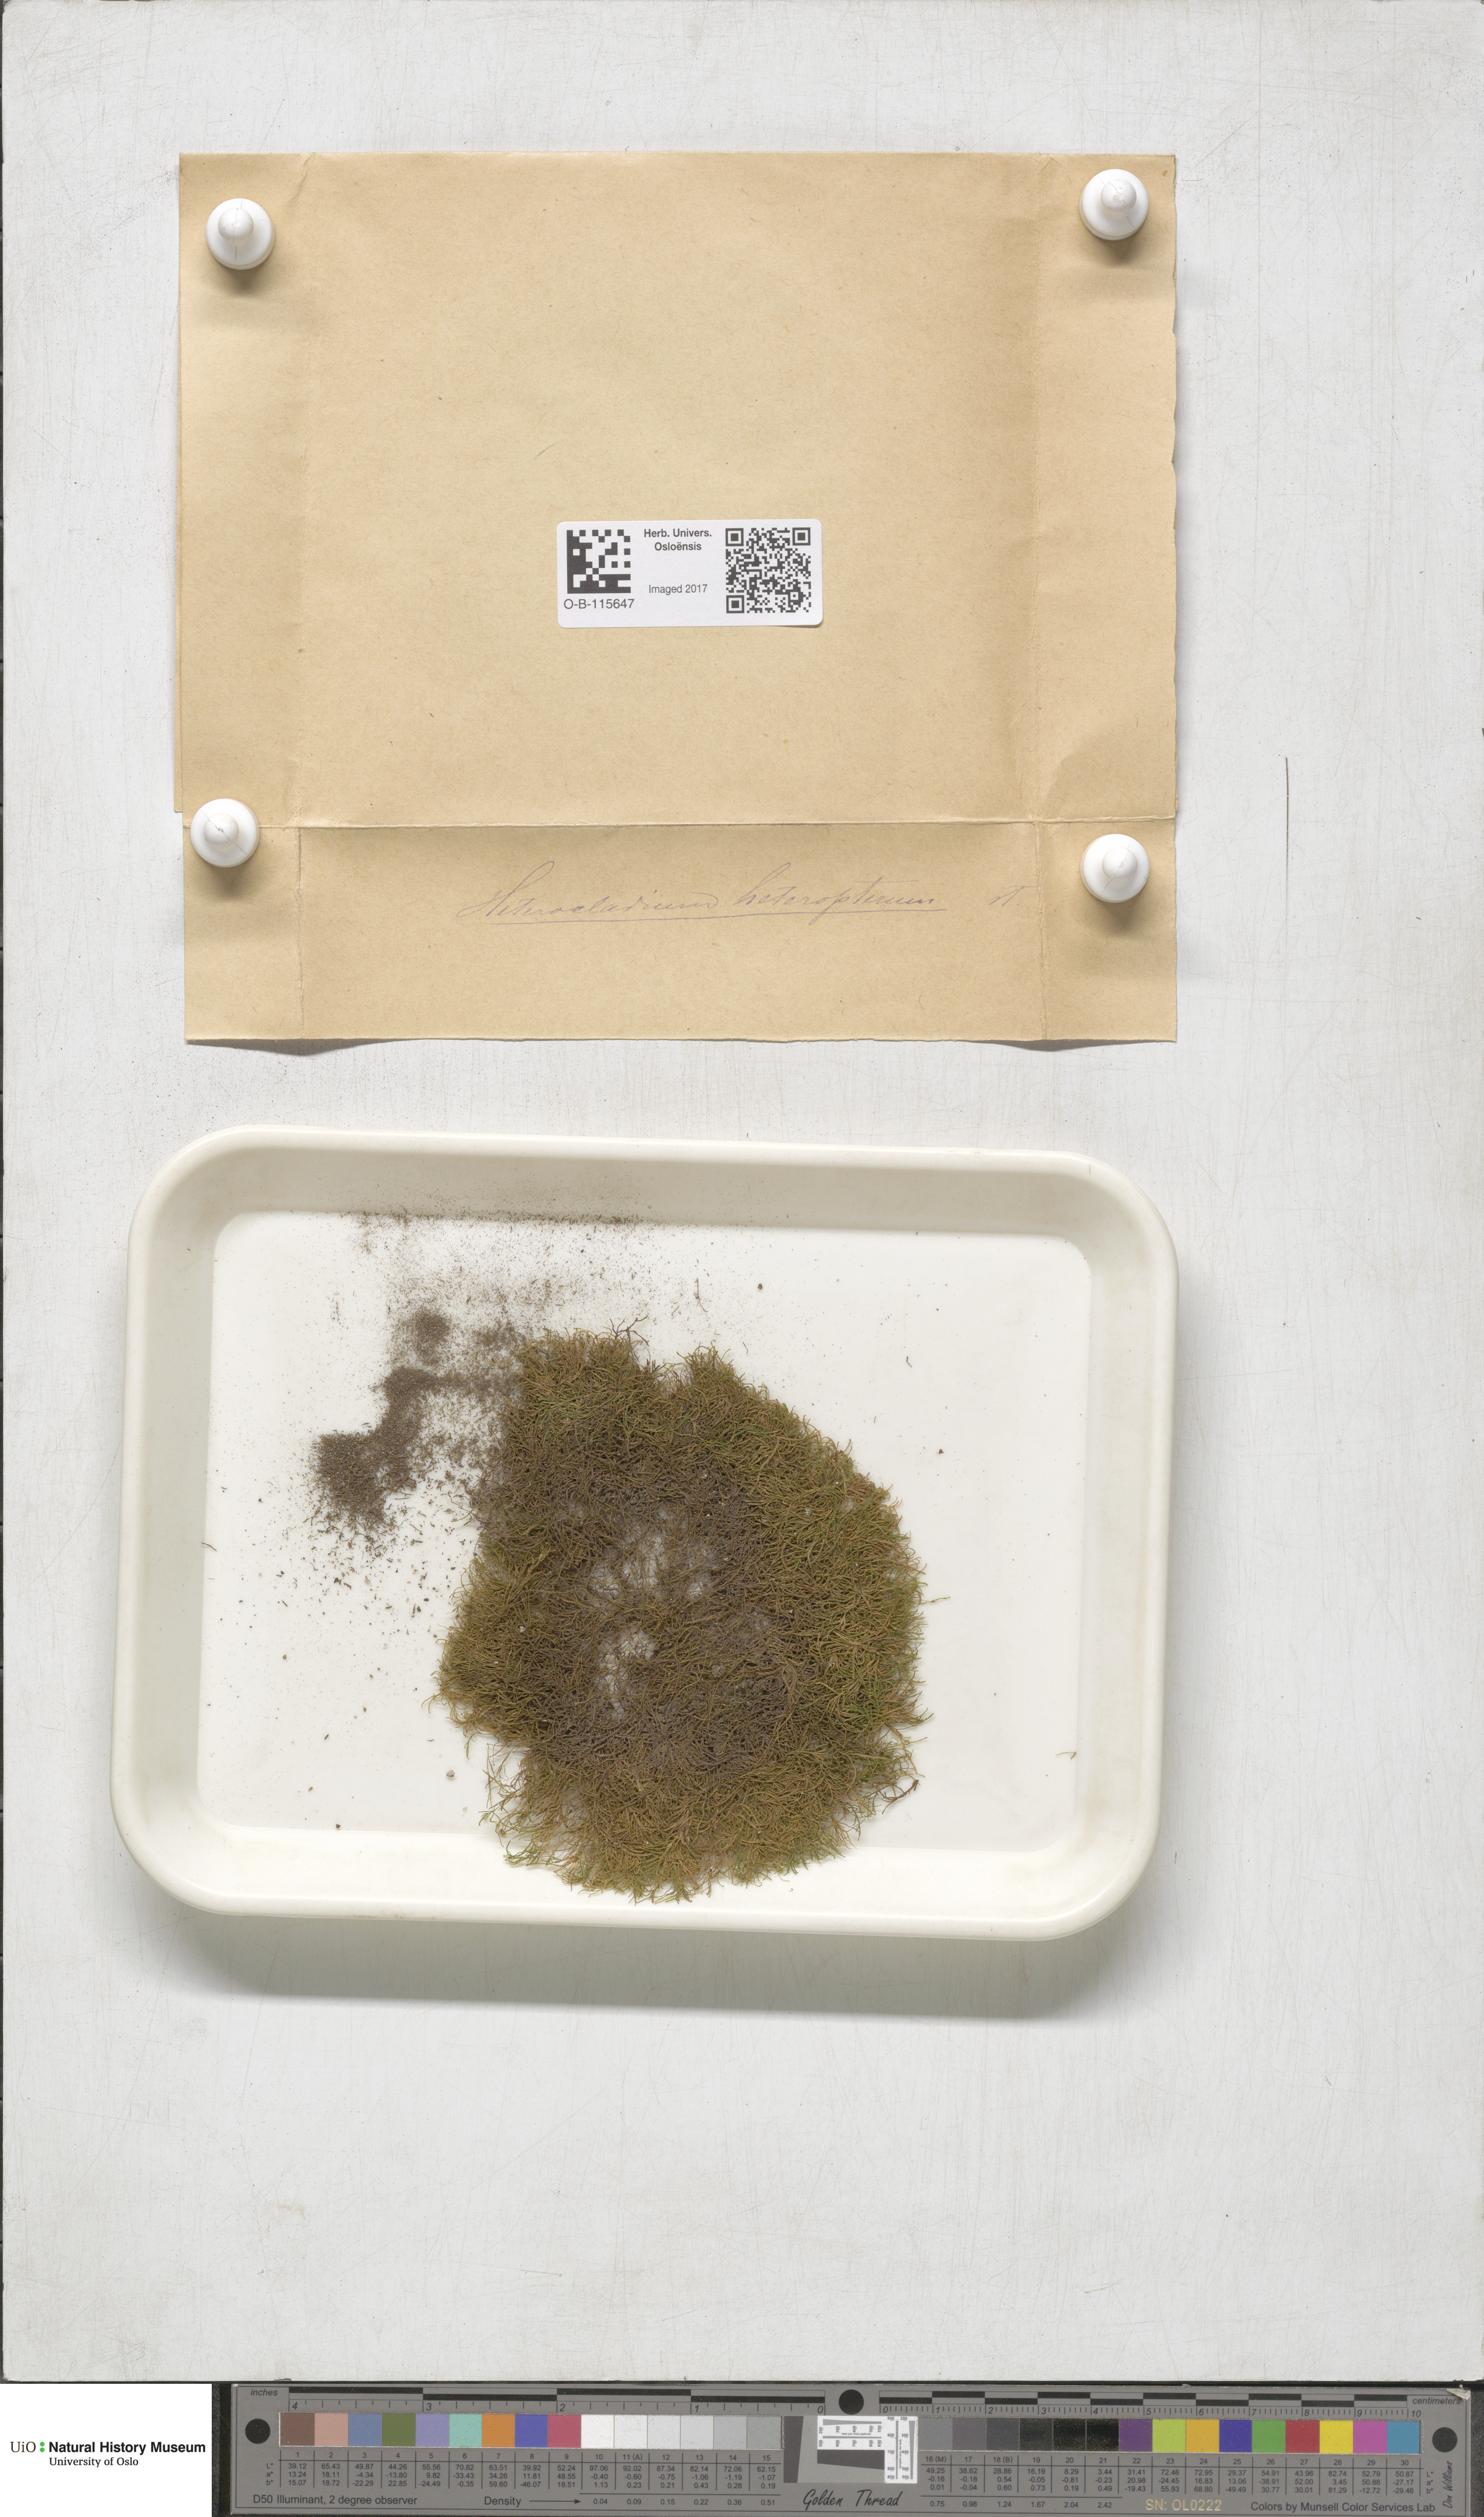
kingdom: Plantae
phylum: Bryophyta
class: Bryopsida
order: Hypnales
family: Lembophyllaceae
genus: Heterocladium
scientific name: Heterocladium heteropterum
